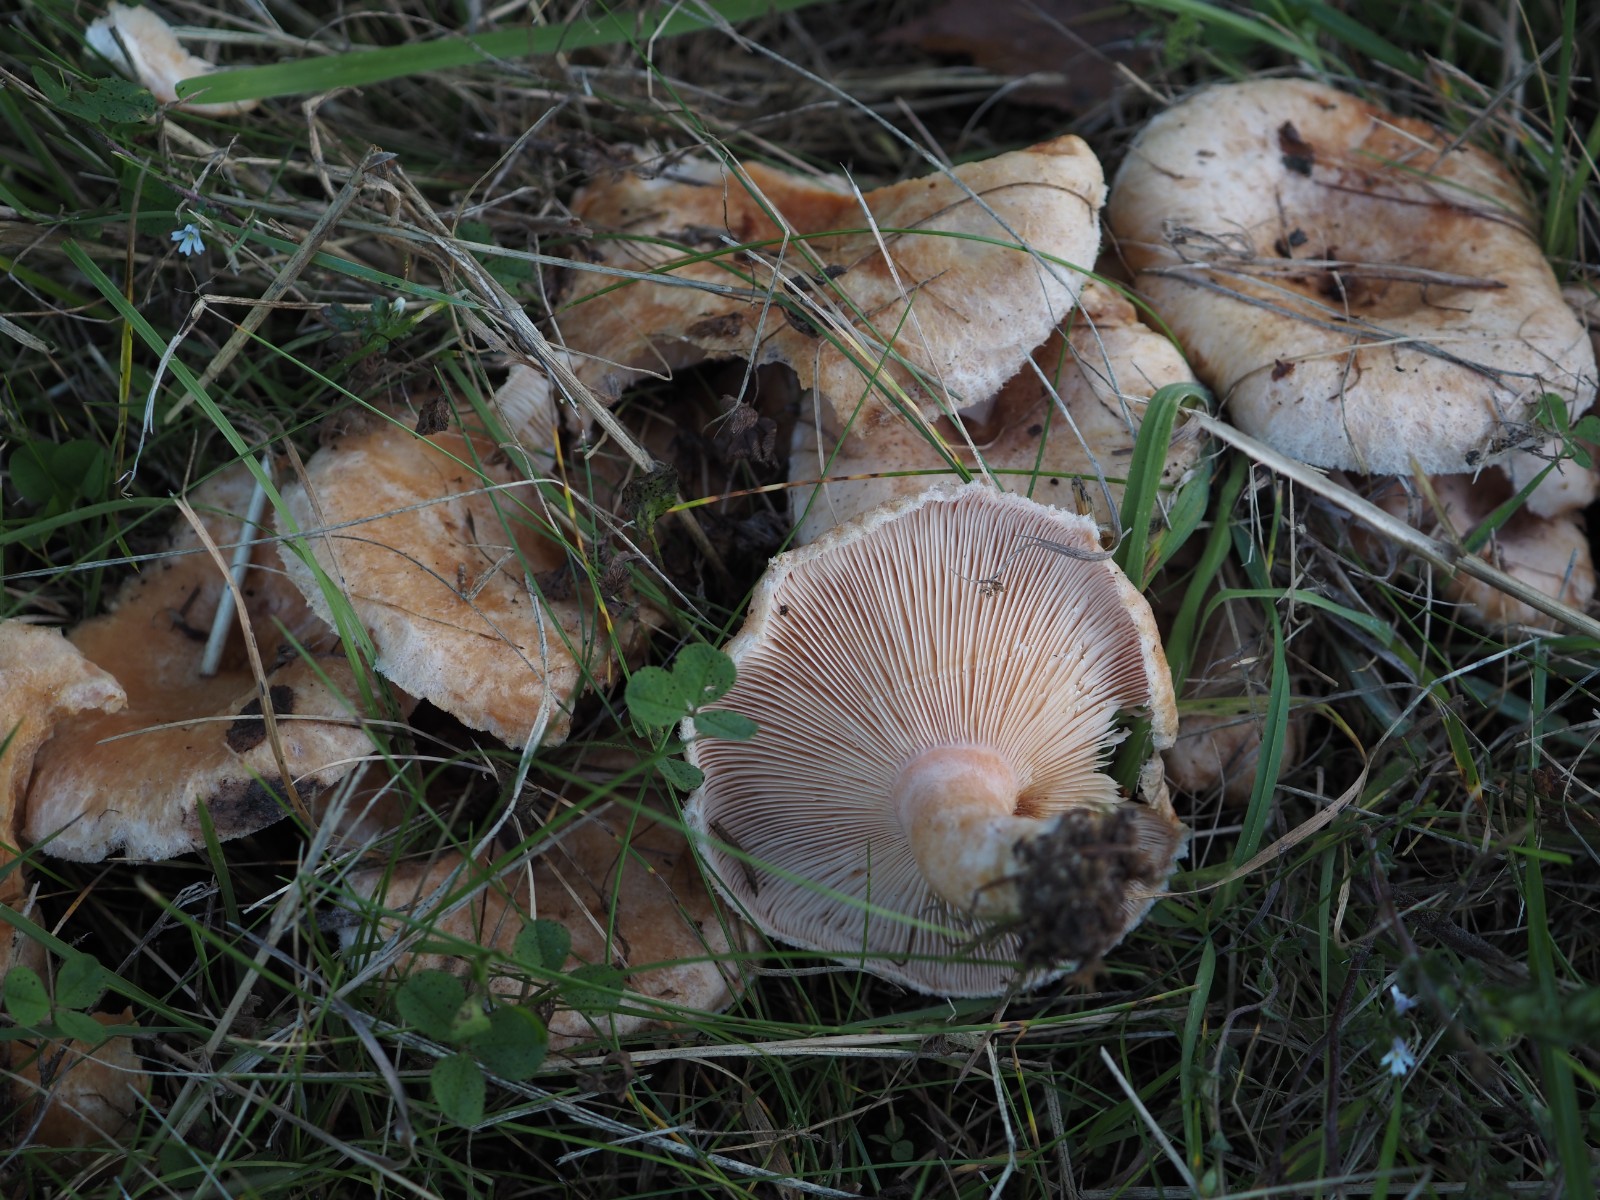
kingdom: Fungi
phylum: Basidiomycota
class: Agaricomycetes
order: Russulales
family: Russulaceae
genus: Lactarius
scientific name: Lactarius pubescens
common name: dunet mælkehat
